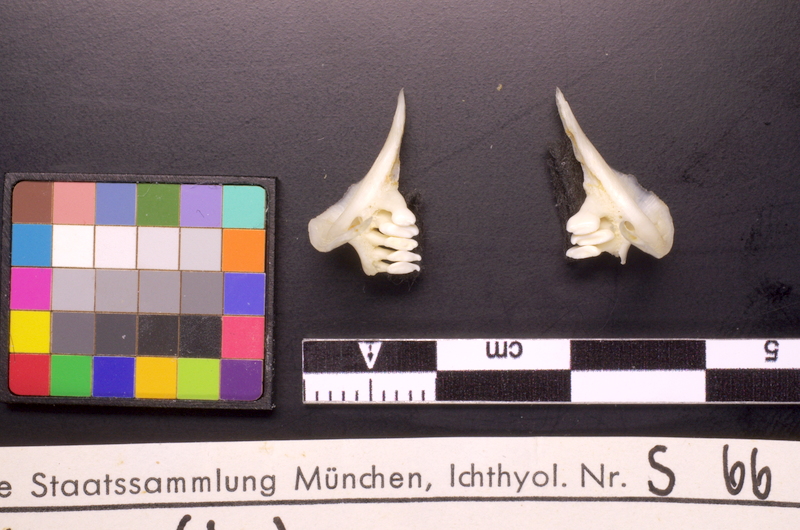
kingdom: Animalia
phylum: Chordata
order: Cypriniformes
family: Cyprinidae
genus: Tinca
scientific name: Tinca tinca
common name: Tench
